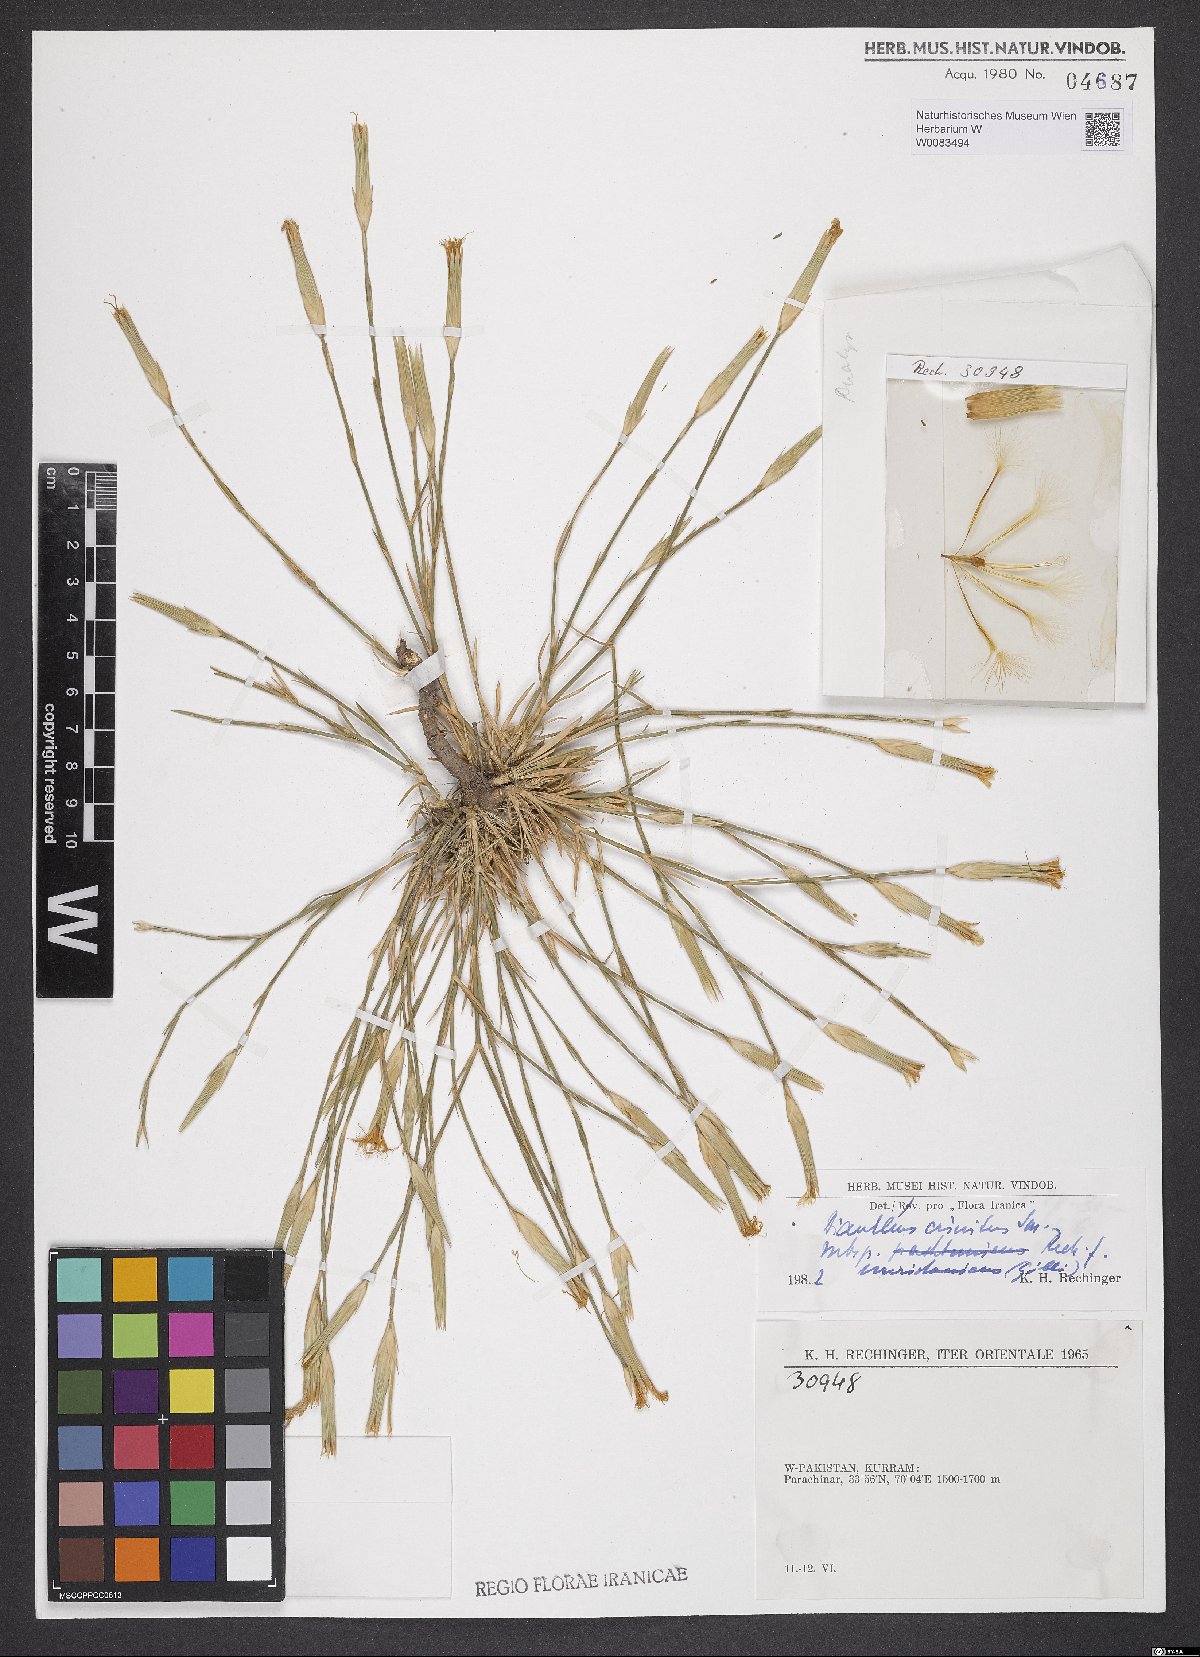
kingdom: Plantae
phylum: Tracheophyta
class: Magnoliopsida
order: Caryophyllales
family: Caryophyllaceae
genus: Dianthus
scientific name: Dianthus crinitus
